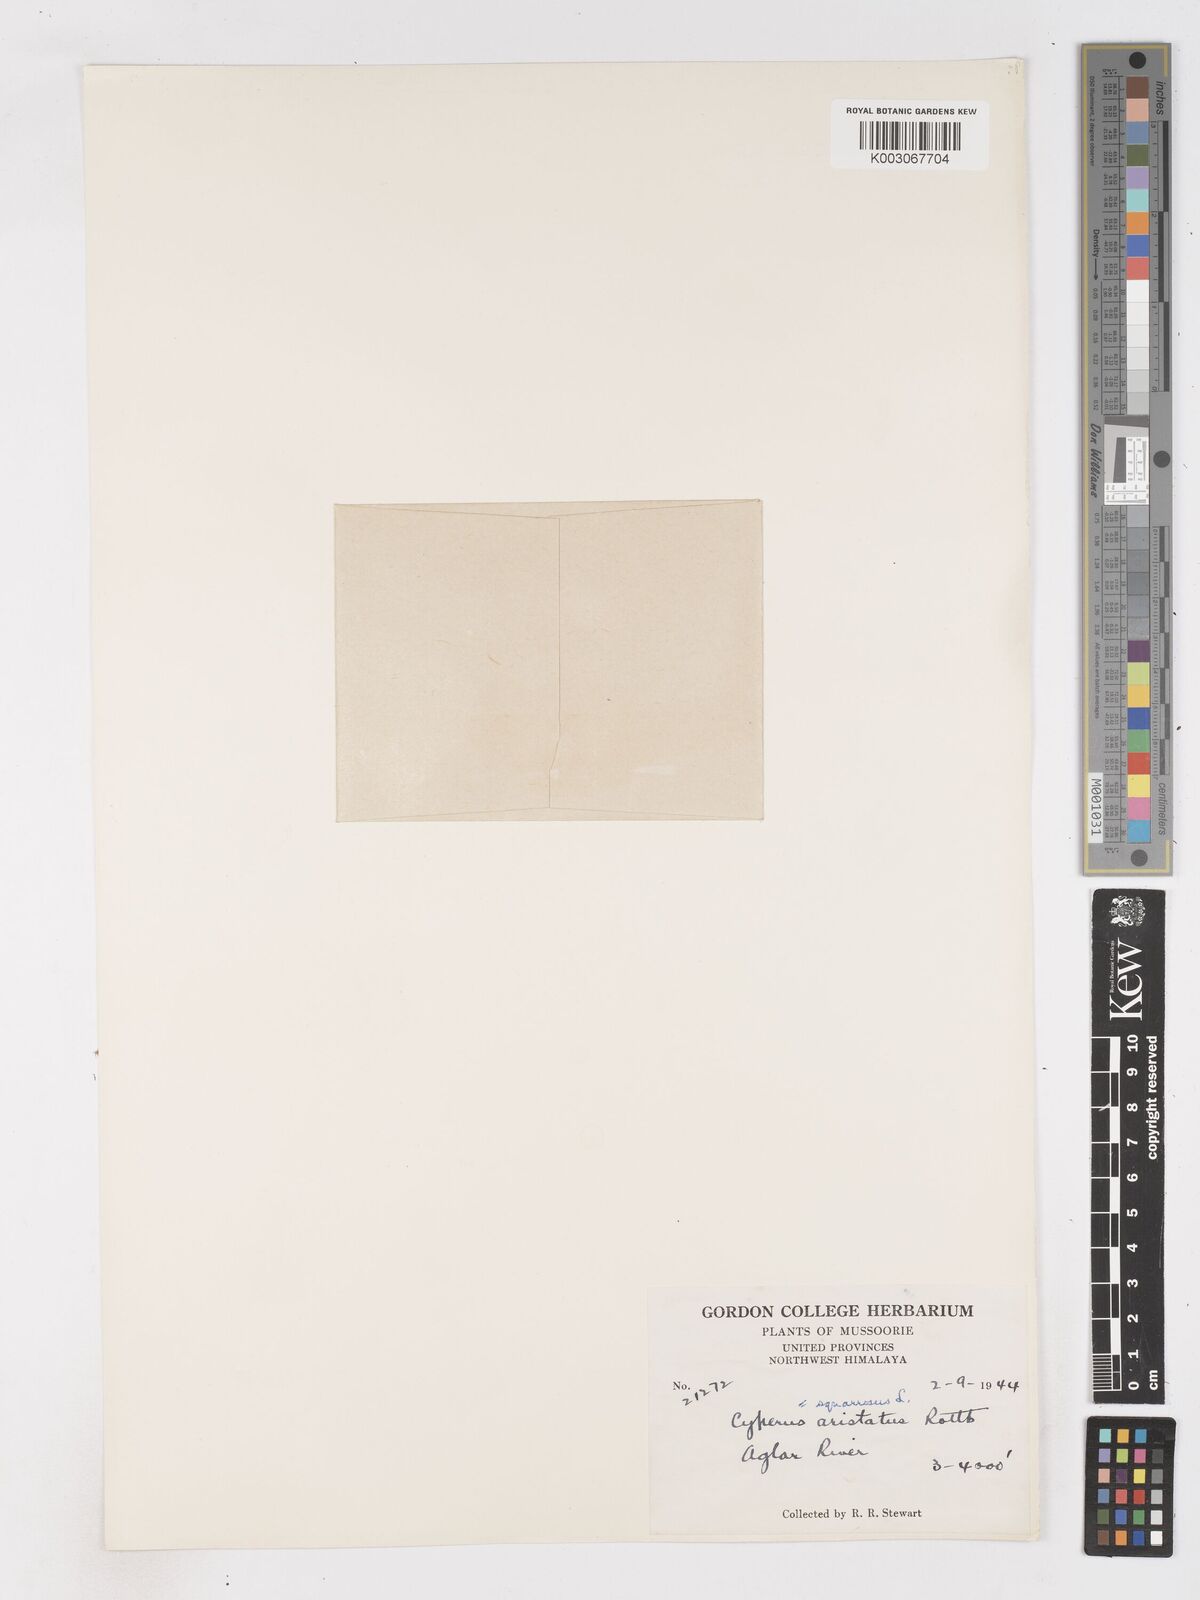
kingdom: Plantae
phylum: Tracheophyta
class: Liliopsida
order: Poales
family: Cyperaceae
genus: Cyperus
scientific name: Cyperus squarrosus
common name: Awned cyperus
